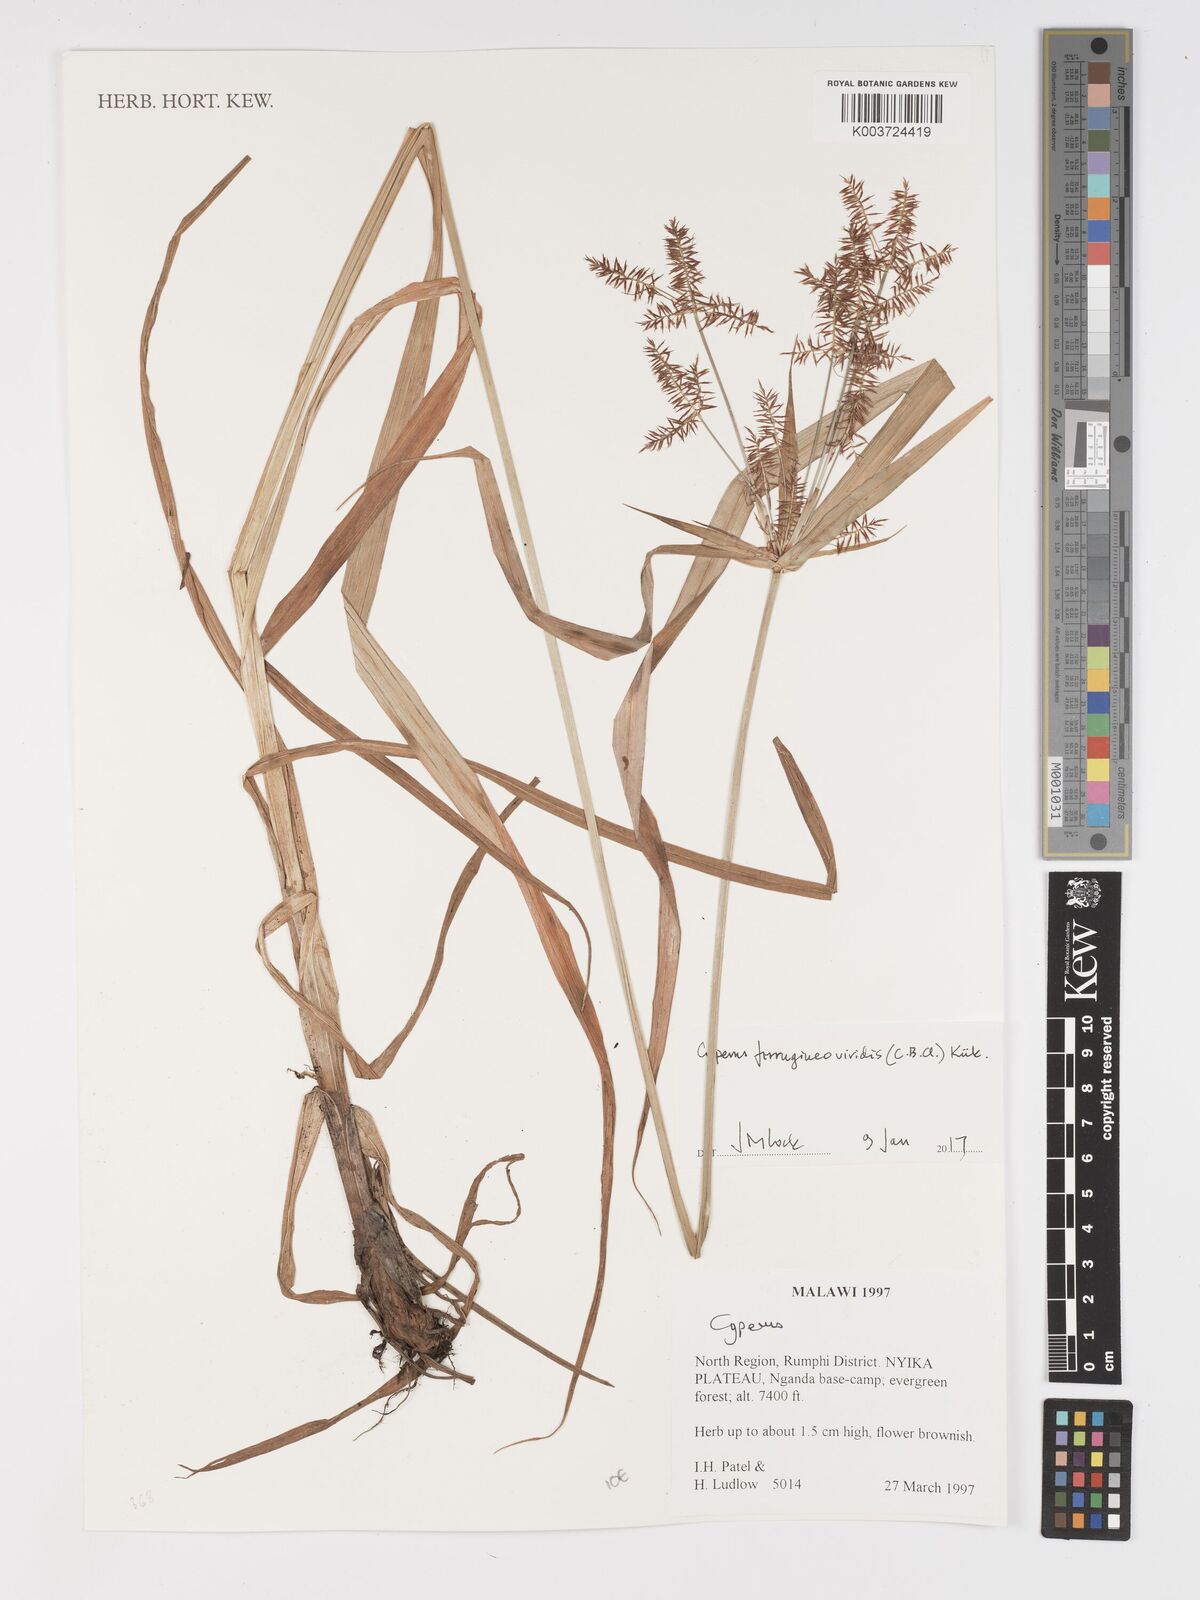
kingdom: Plantae
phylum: Tracheophyta
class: Liliopsida
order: Poales
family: Cyperaceae
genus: Cyperus
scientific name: Cyperus ferrugineoviridis
